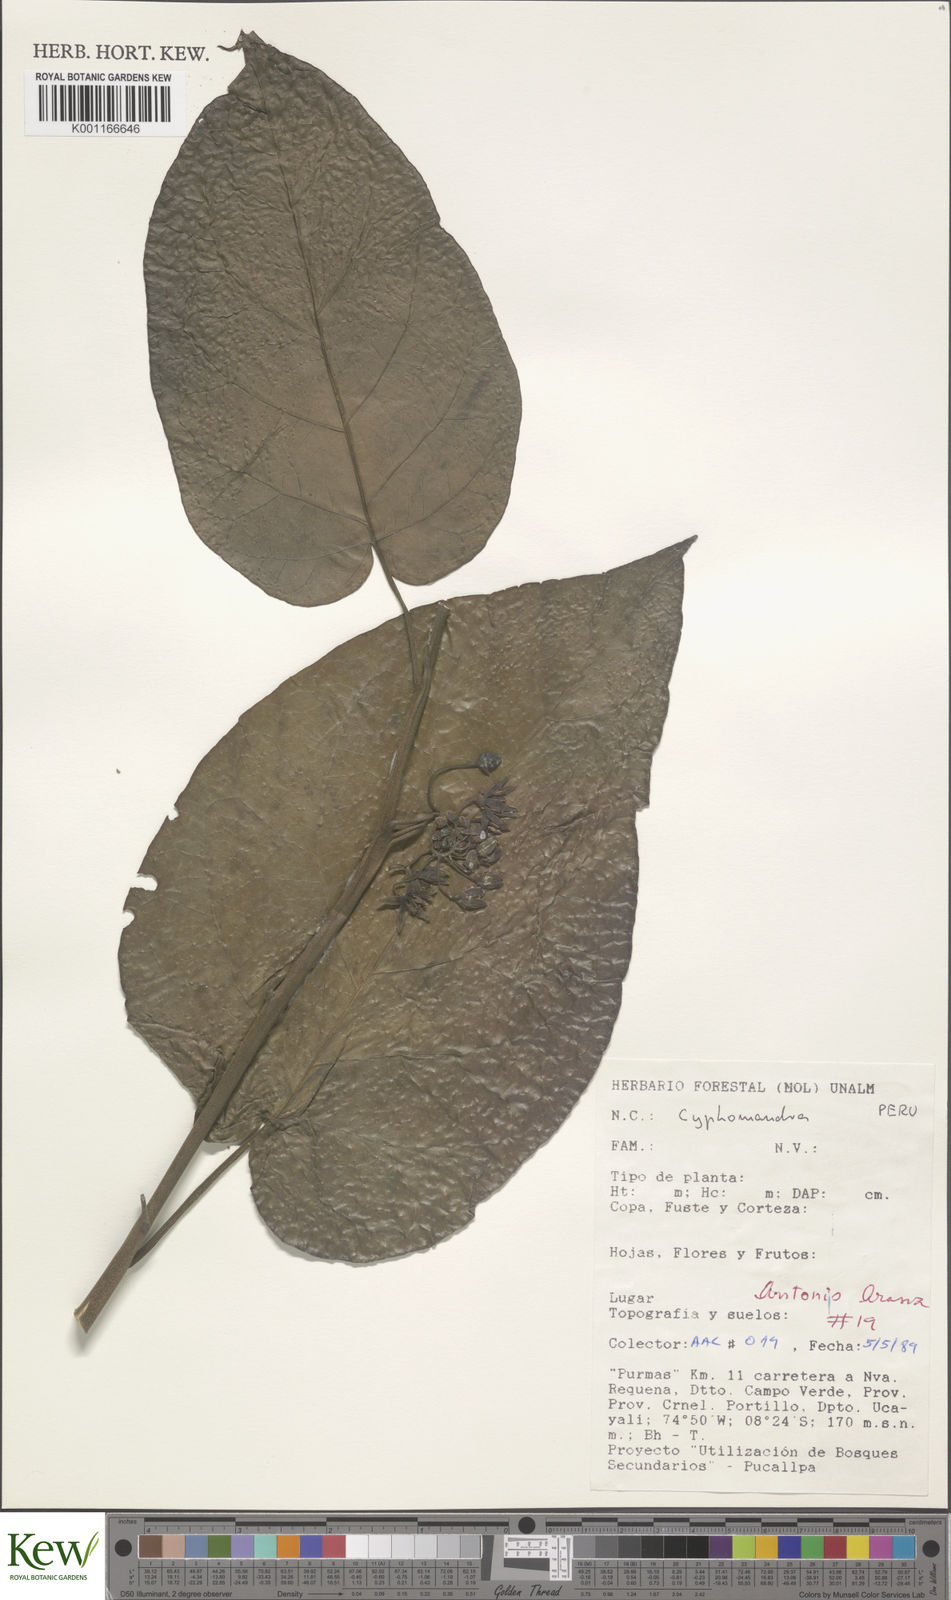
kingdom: Plantae
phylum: Tracheophyta
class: Magnoliopsida
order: Solanales
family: Solanaceae
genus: Solanum
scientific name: Solanum
